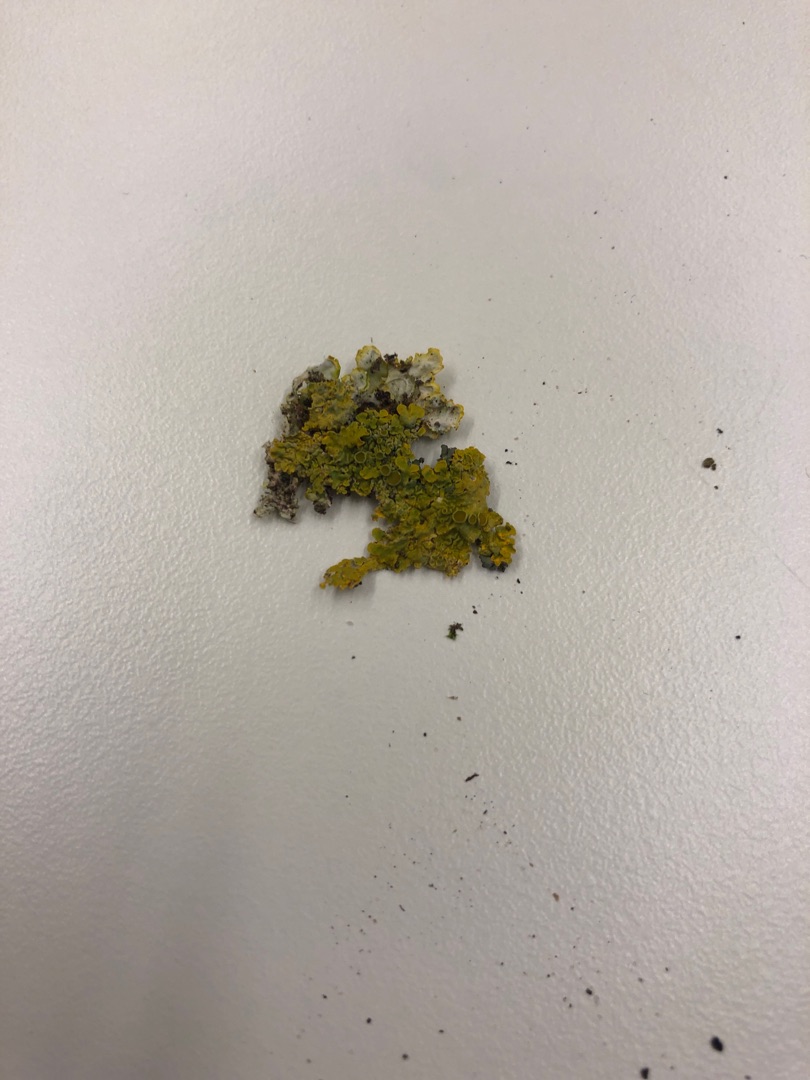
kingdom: Fungi
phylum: Ascomycota
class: Lecanoromycetes
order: Teloschistales
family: Teloschistaceae
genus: Xanthoria
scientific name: Xanthoria parietina
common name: Almindelig væggelav
